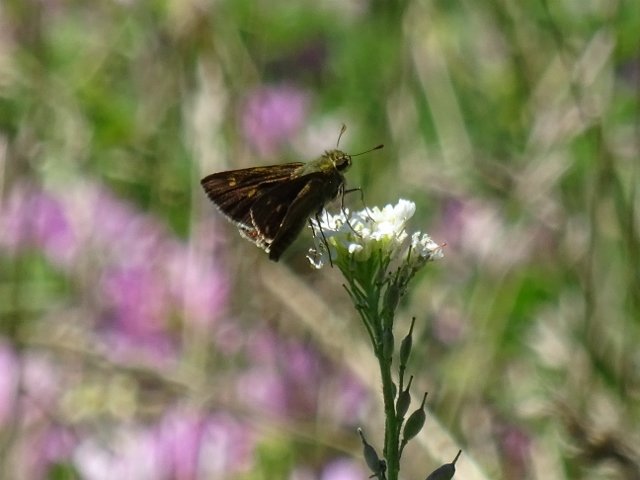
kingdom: Animalia
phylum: Arthropoda
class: Insecta
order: Lepidoptera
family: Hesperiidae
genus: Polites
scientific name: Polites egeremet
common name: Northern Broken-Dash
